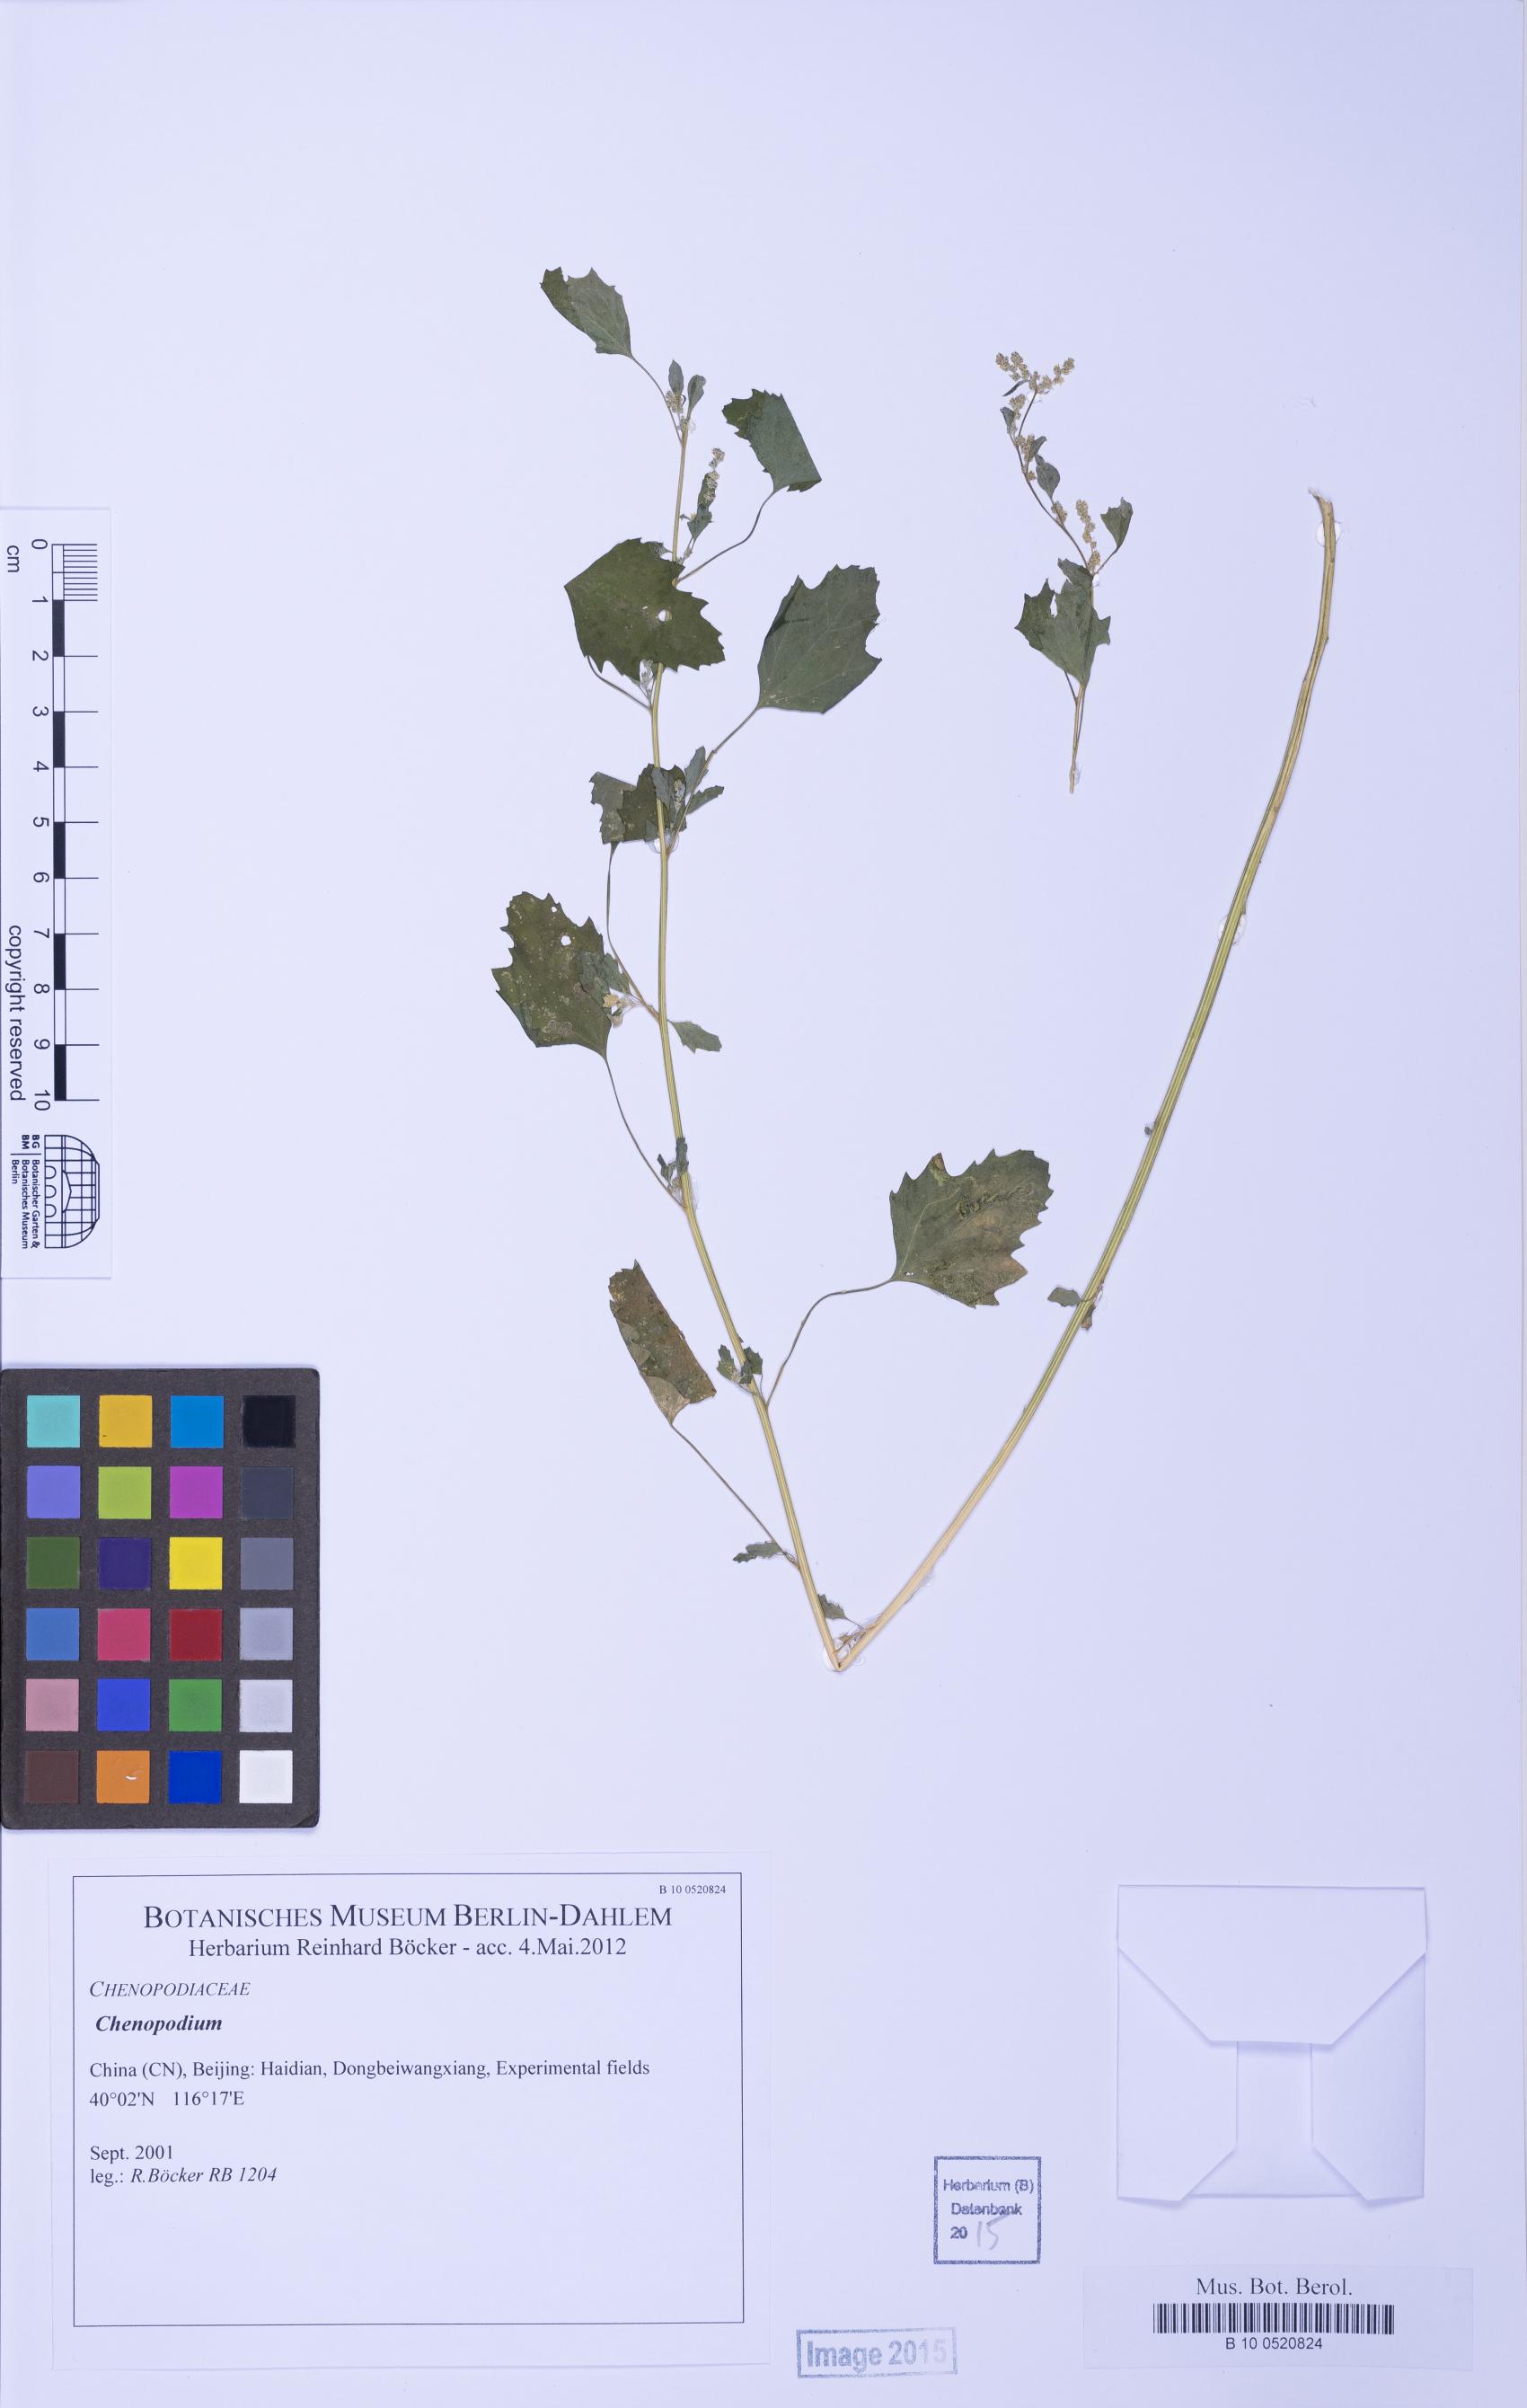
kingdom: Plantae
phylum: Tracheophyta
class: Magnoliopsida
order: Caryophyllales
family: Amaranthaceae
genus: Chenopodium
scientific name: Chenopodium
